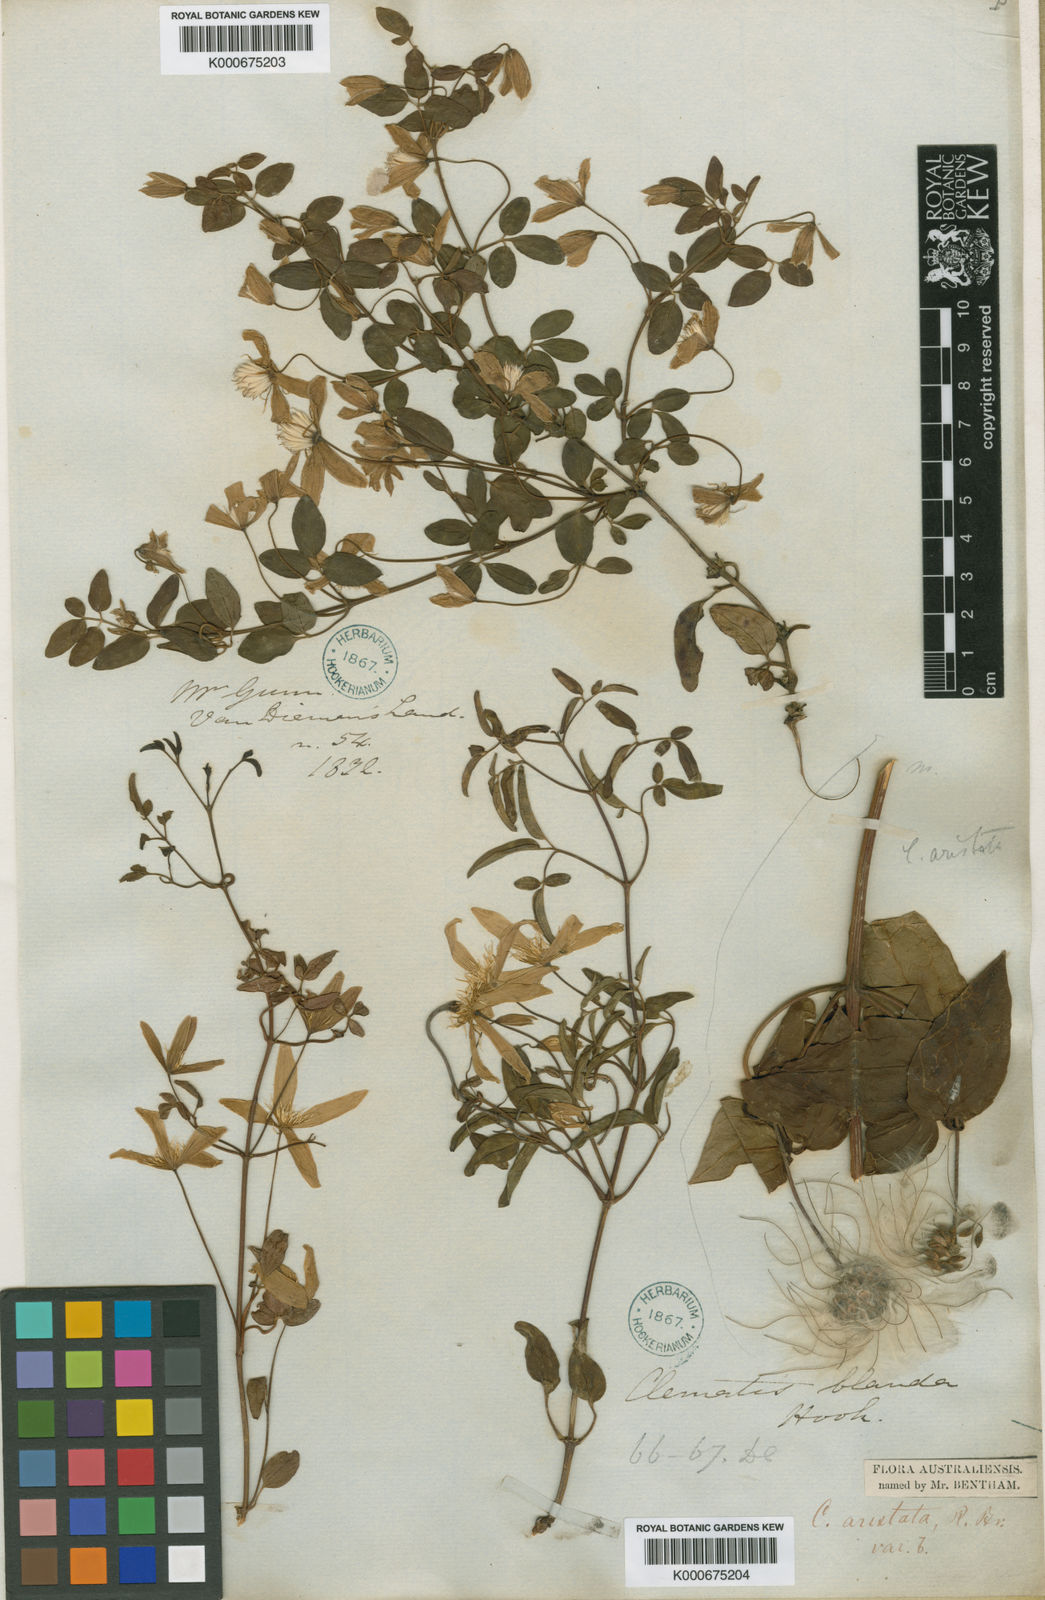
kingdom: Plantae
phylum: Tracheophyta
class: Magnoliopsida
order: Ranunculales
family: Ranunculaceae
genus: Clematis
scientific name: Clematis clitorioides
